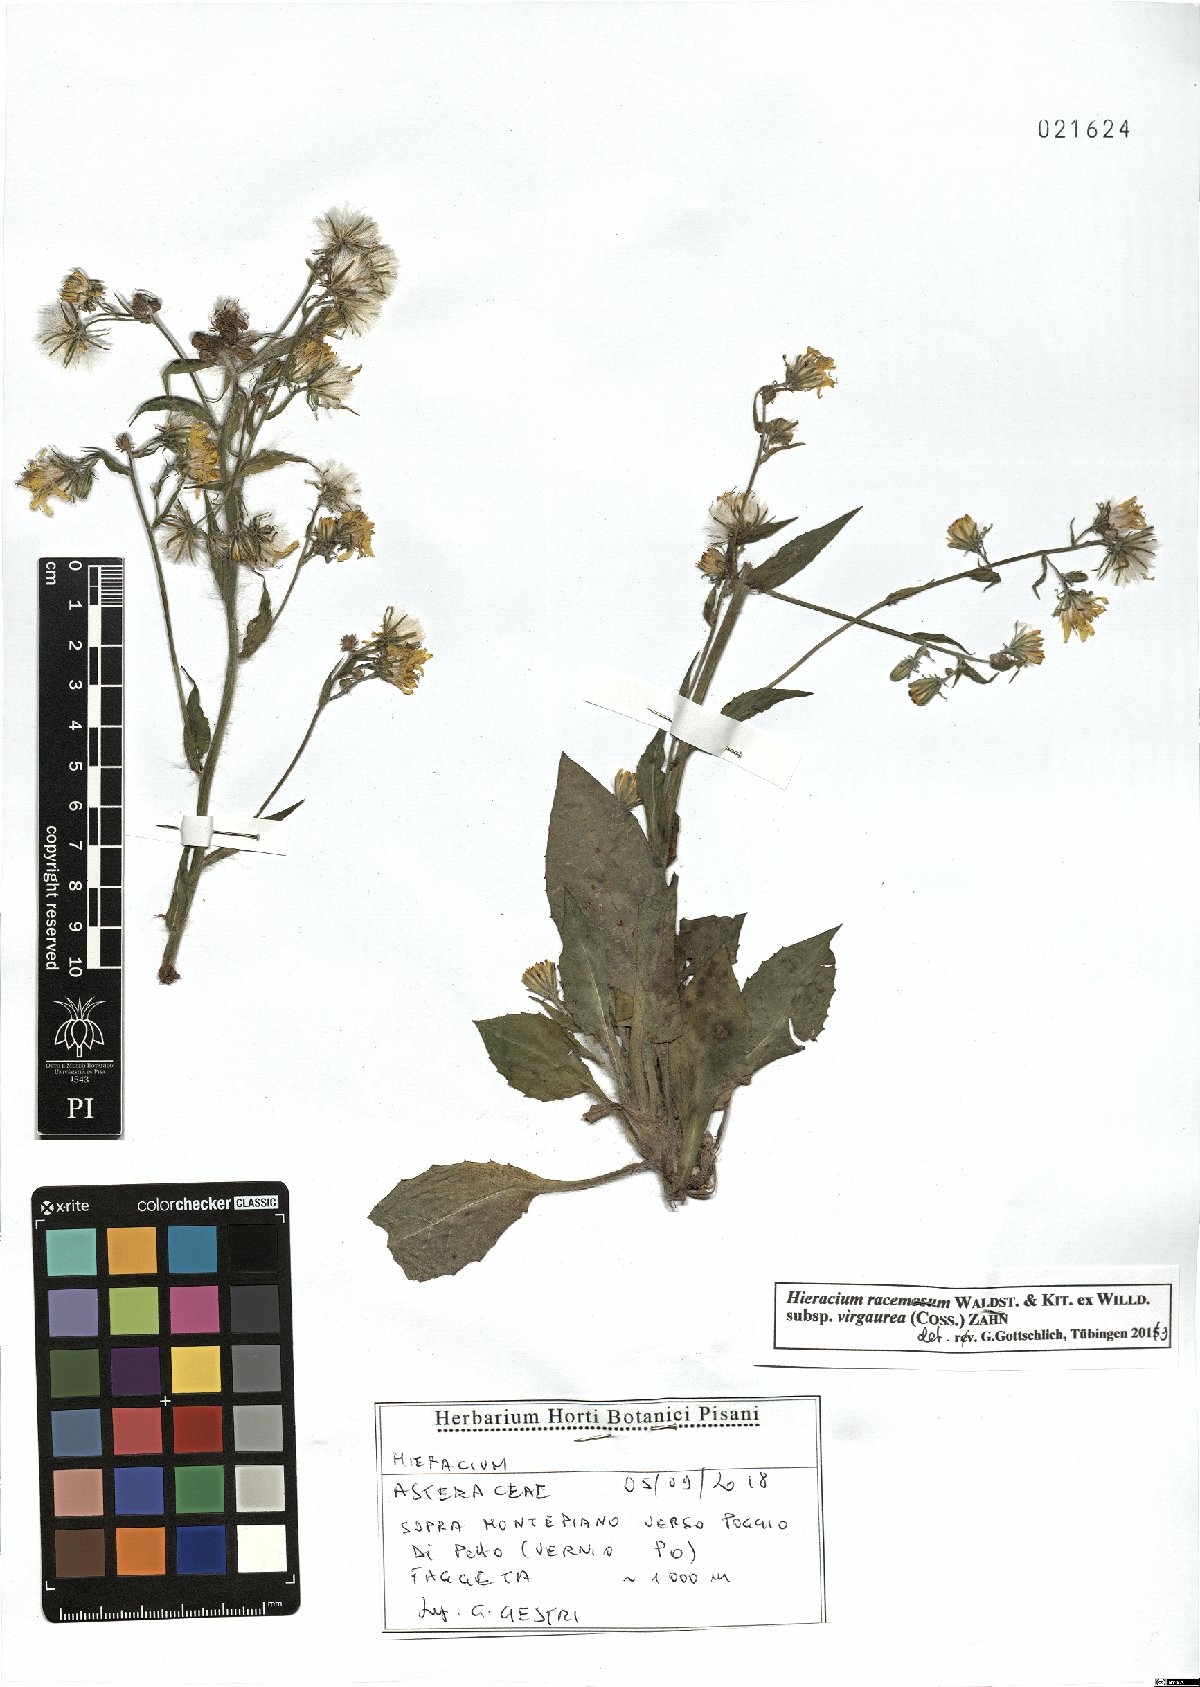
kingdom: Plantae
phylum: Tracheophyta
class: Magnoliopsida
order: Asterales
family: Asteraceae
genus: Hieracium
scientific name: Hieracium racemosum
